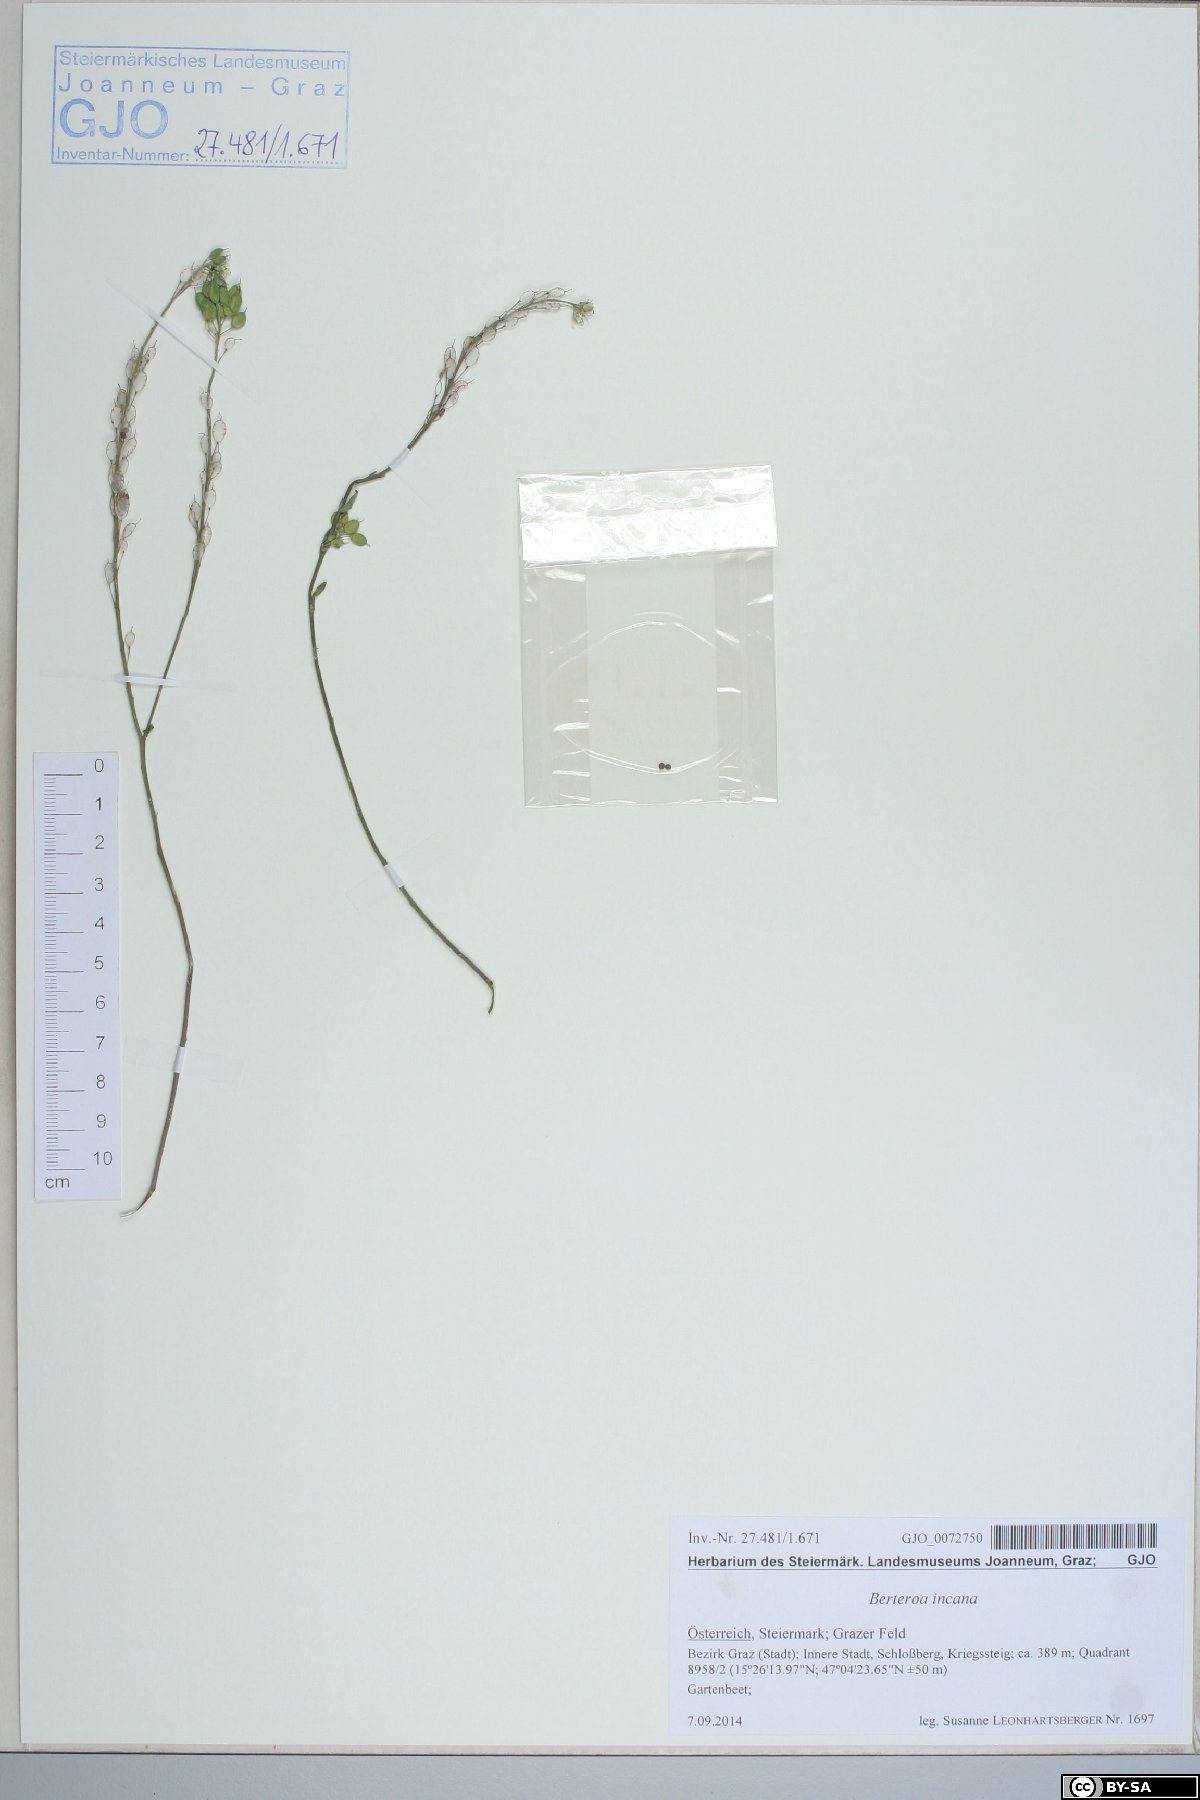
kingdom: Plantae
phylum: Tracheophyta
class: Magnoliopsida
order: Brassicales
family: Brassicaceae
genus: Berteroa
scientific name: Berteroa incana
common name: Hoary alison
